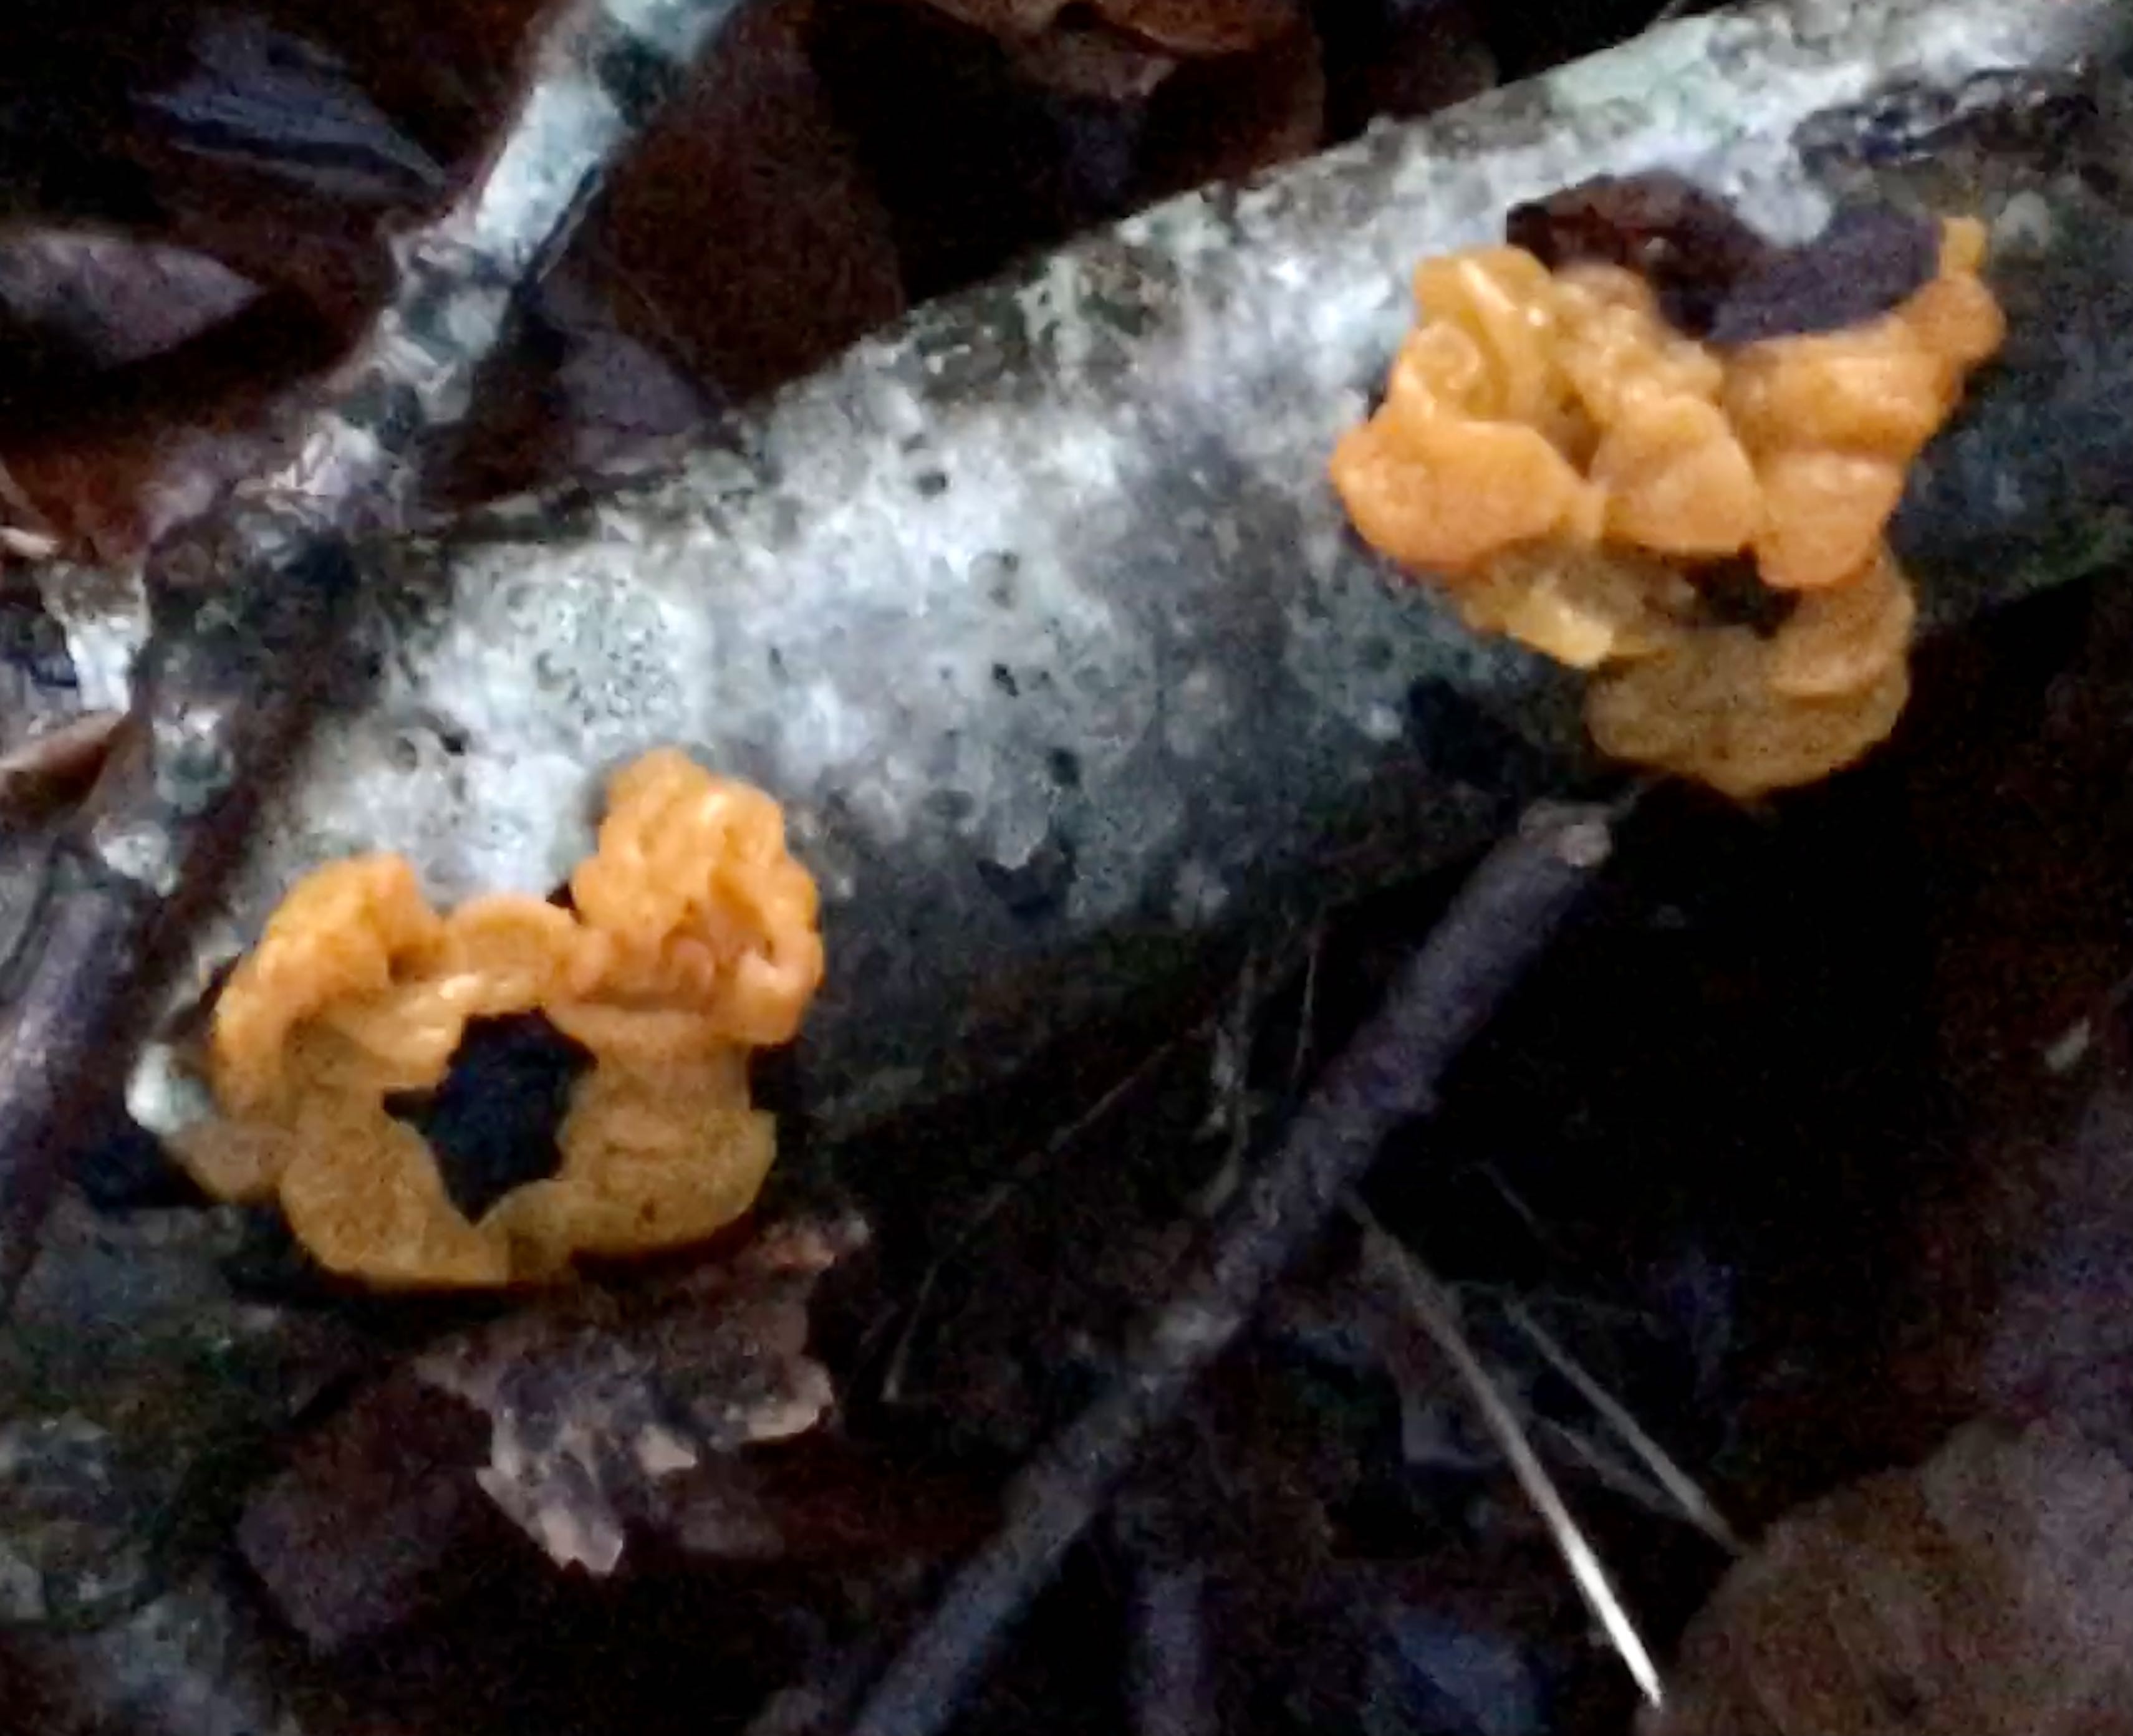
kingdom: Fungi
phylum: Basidiomycota
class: Tremellomycetes
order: Tremellales
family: Tremellaceae
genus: Tremella
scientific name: Tremella mesenterica
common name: gul bævresvamp
